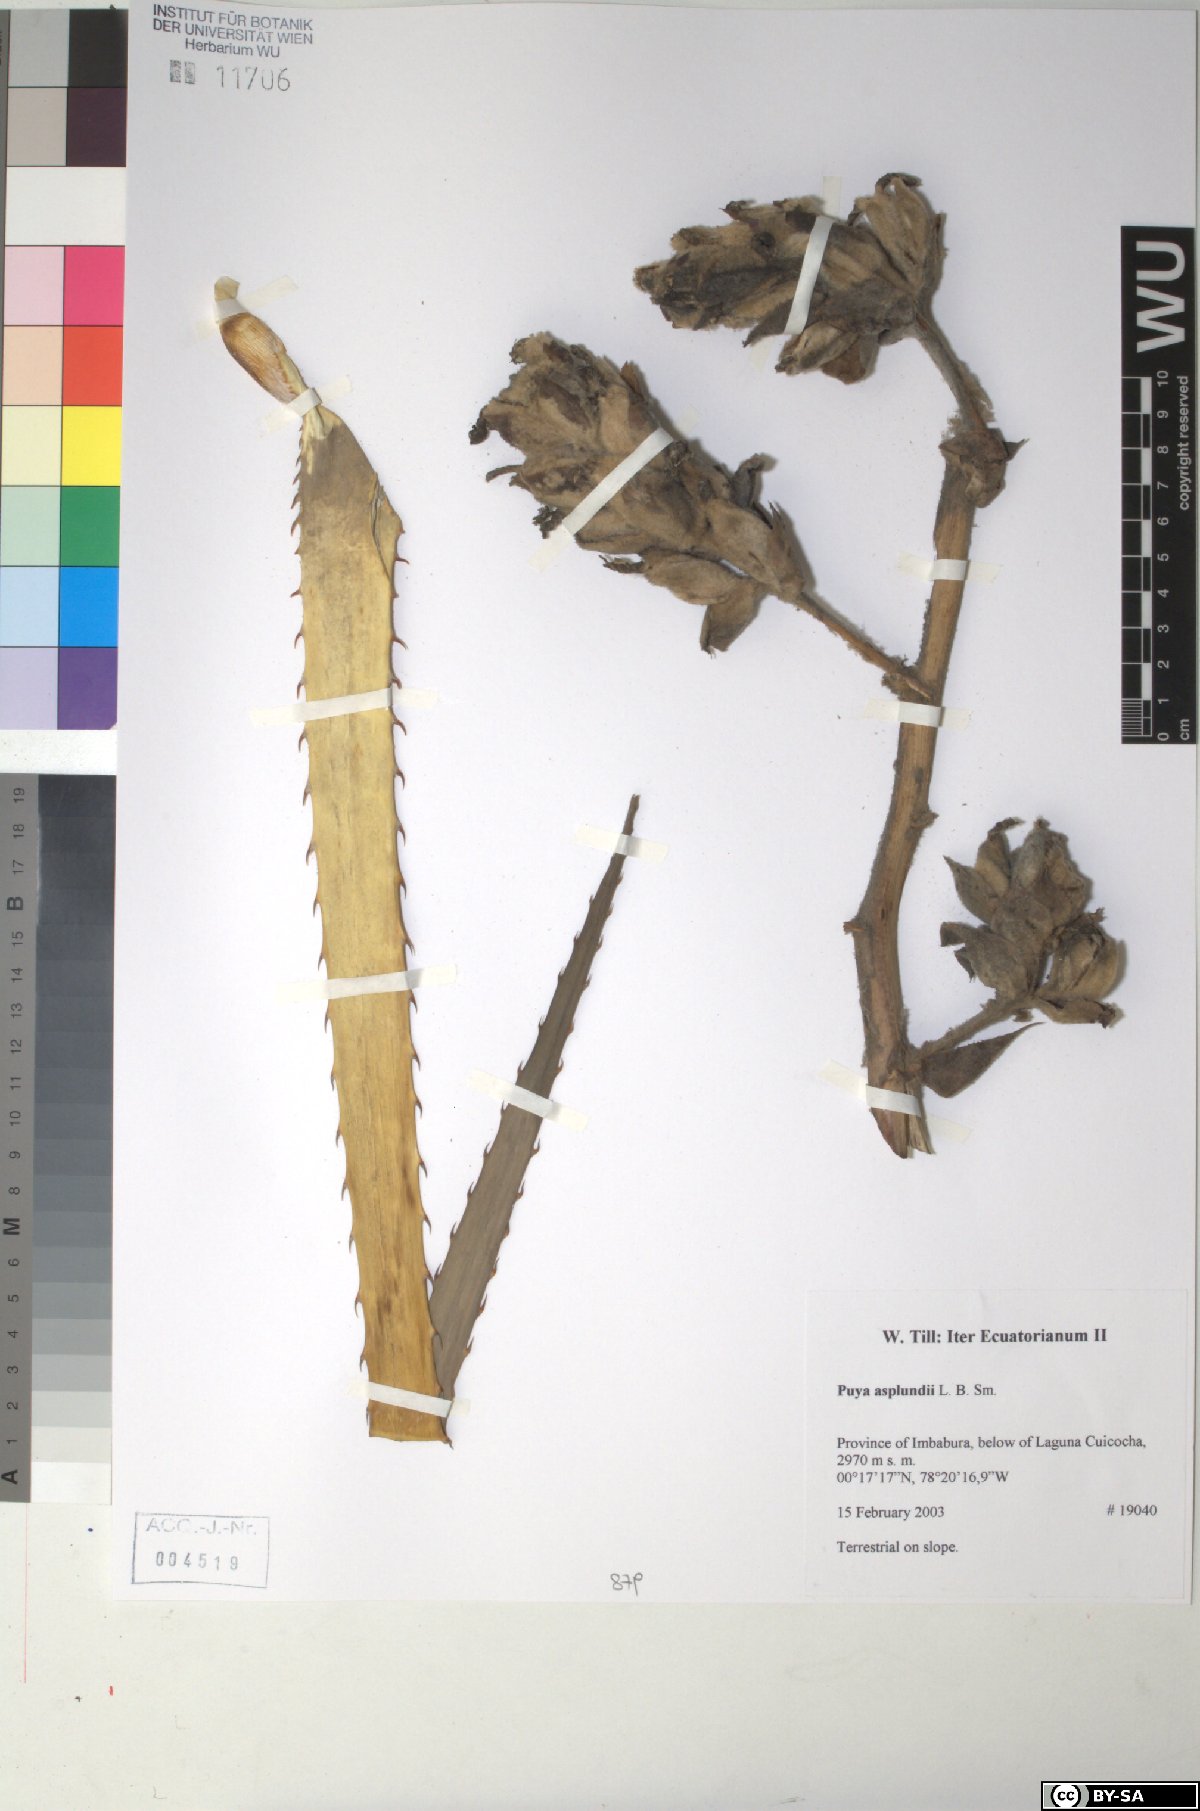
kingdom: Plantae
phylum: Tracheophyta
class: Liliopsida
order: Poales
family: Bromeliaceae
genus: Puya
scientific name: Puya glomerifera
